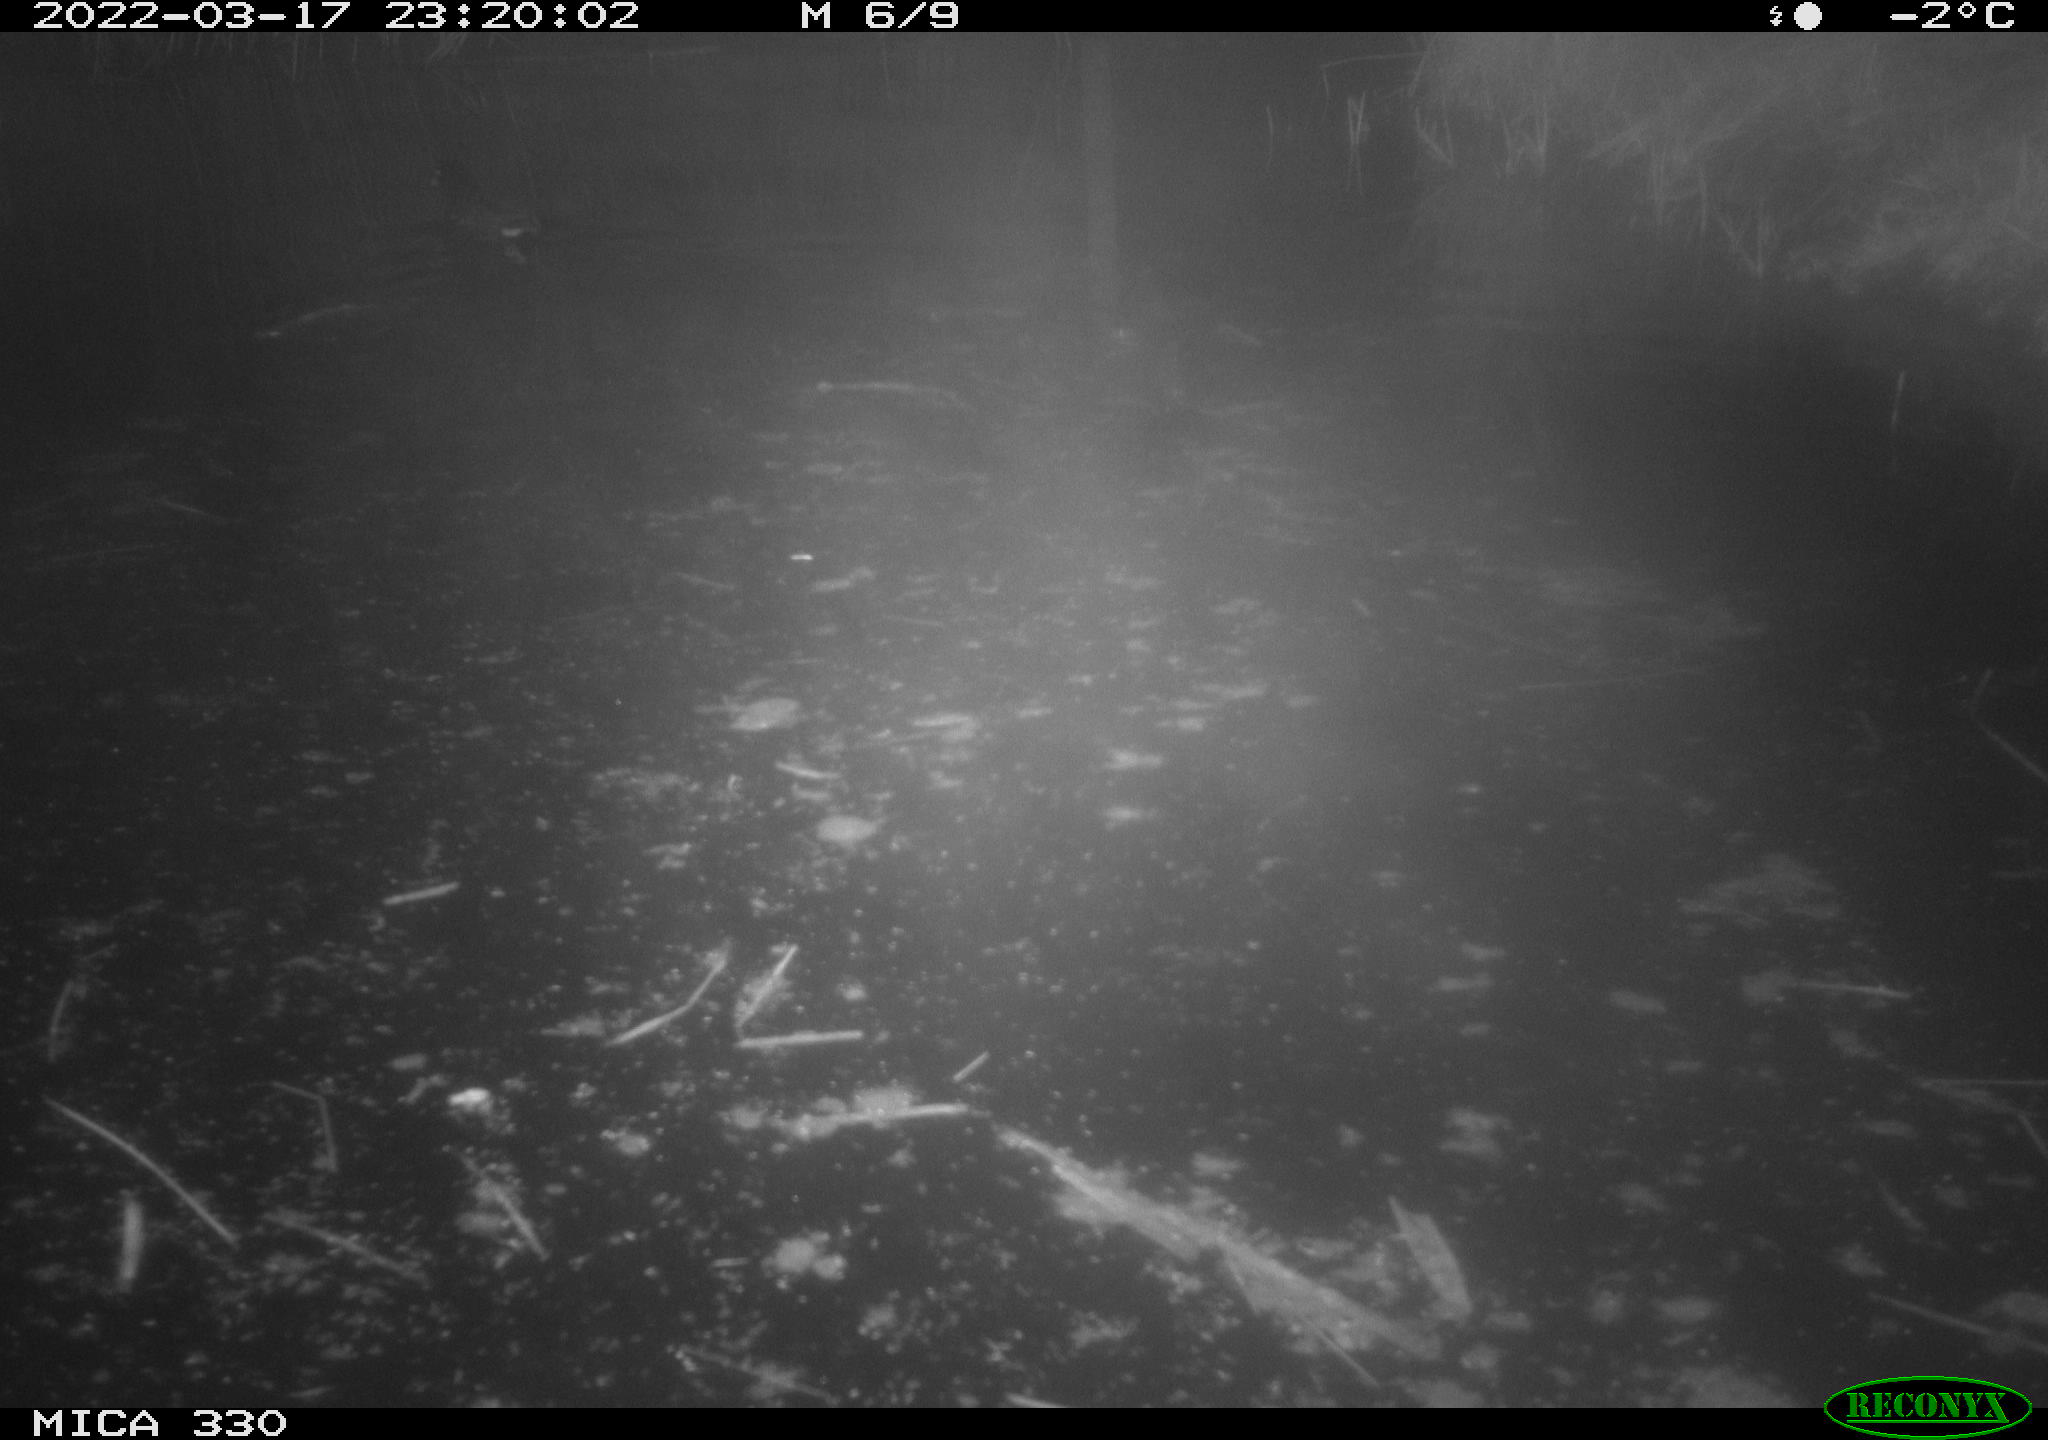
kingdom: Animalia
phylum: Chordata
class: Aves
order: Gruiformes
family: Rallidae
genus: Gallinula
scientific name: Gallinula chloropus
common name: Common moorhen
